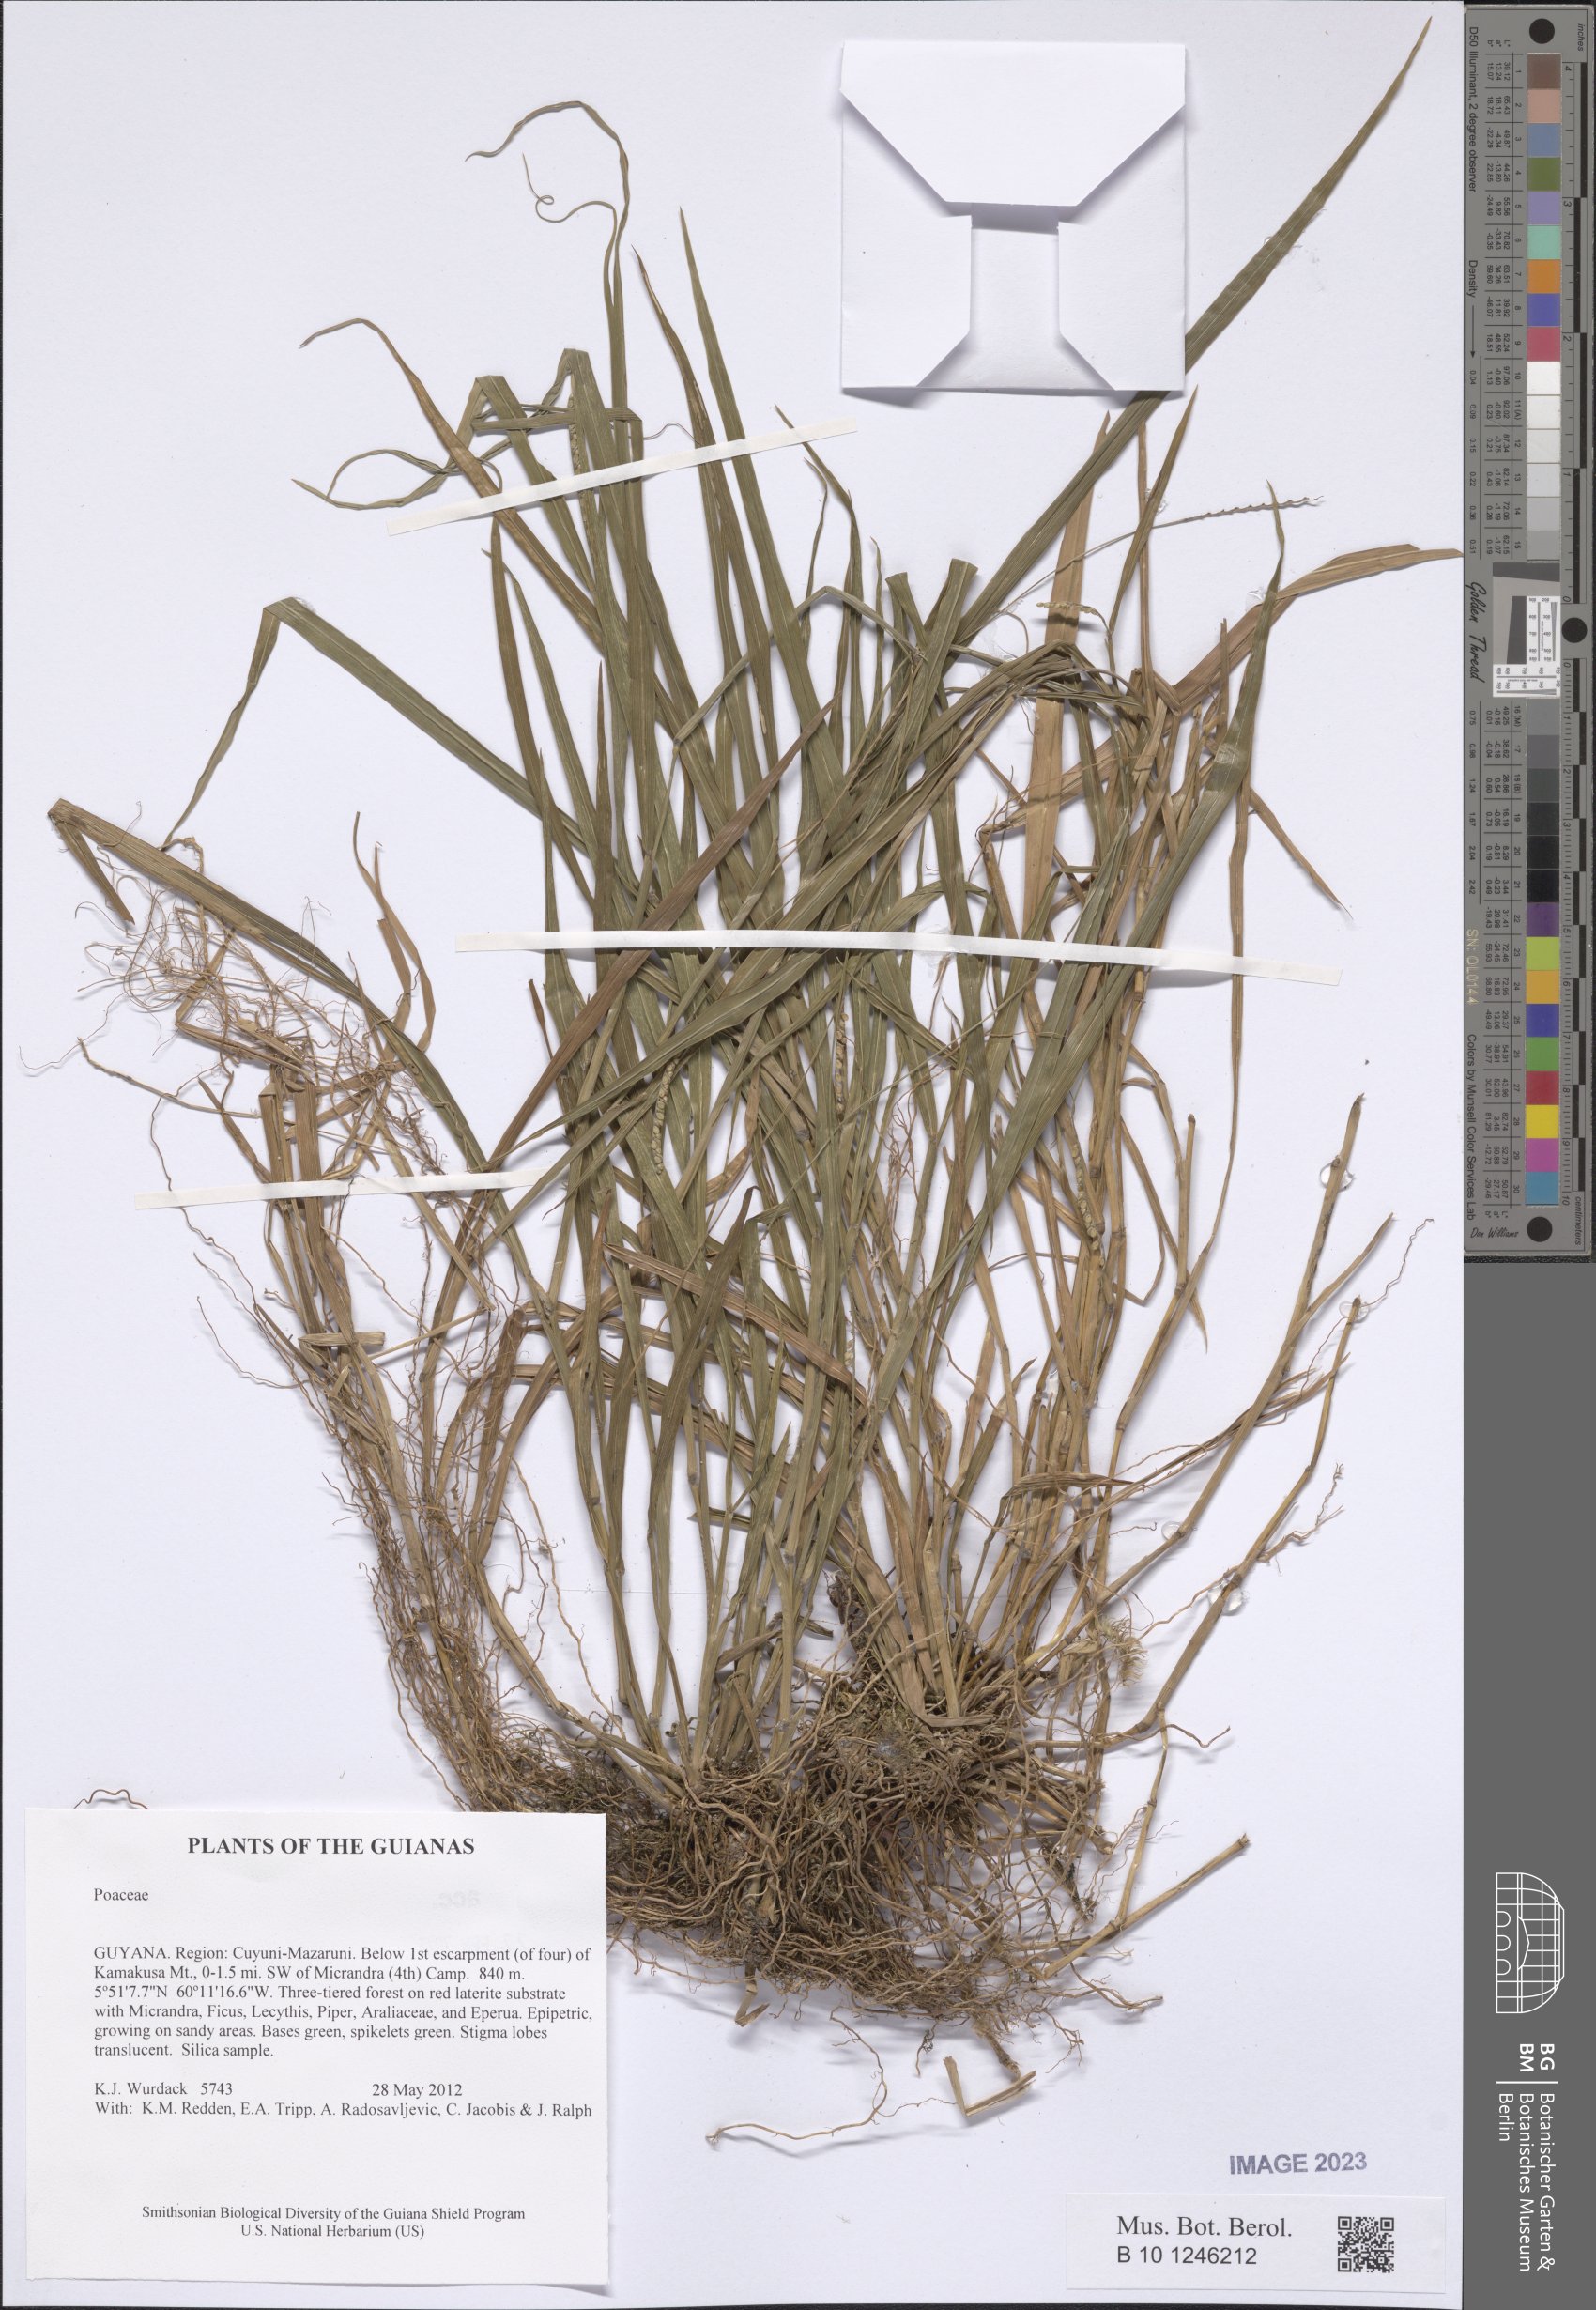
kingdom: Plantae
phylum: Tracheophyta
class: Liliopsida
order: Poales
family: Poaceae
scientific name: Poaceae
